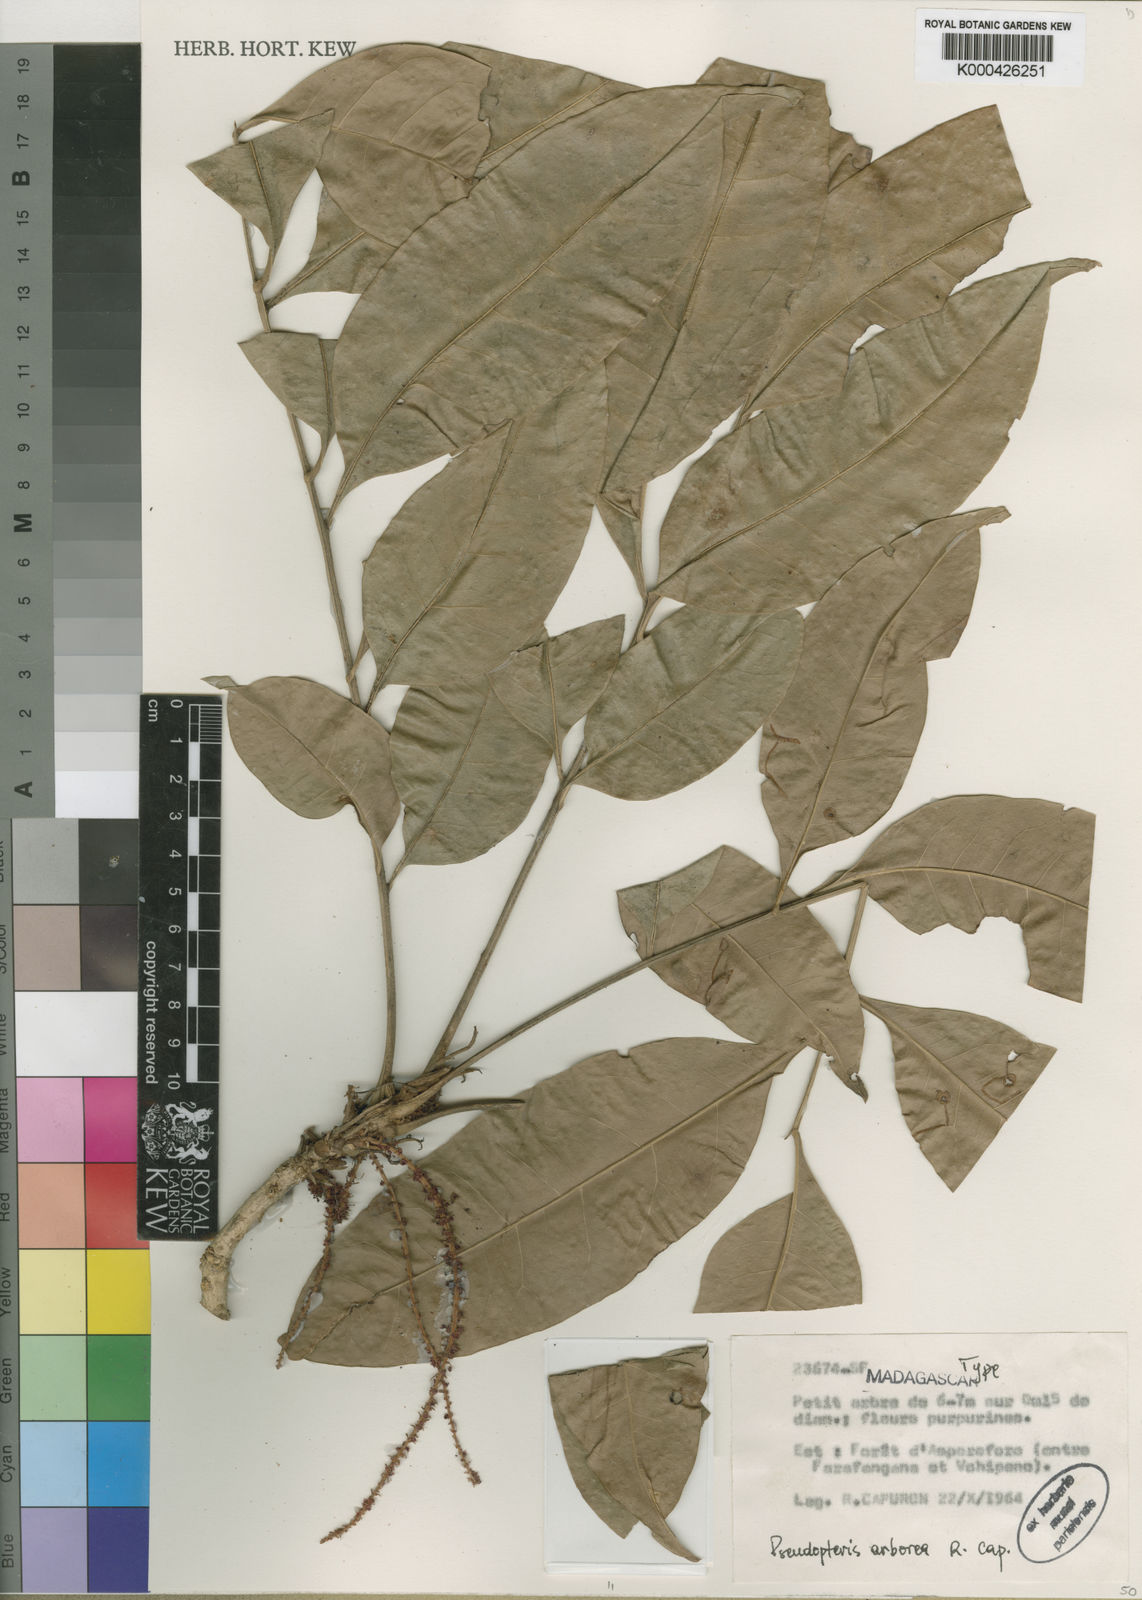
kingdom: Plantae
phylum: Tracheophyta
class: Magnoliopsida
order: Sapindales
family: Sapindaceae
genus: Pseudopteris
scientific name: Pseudopteris arborea
